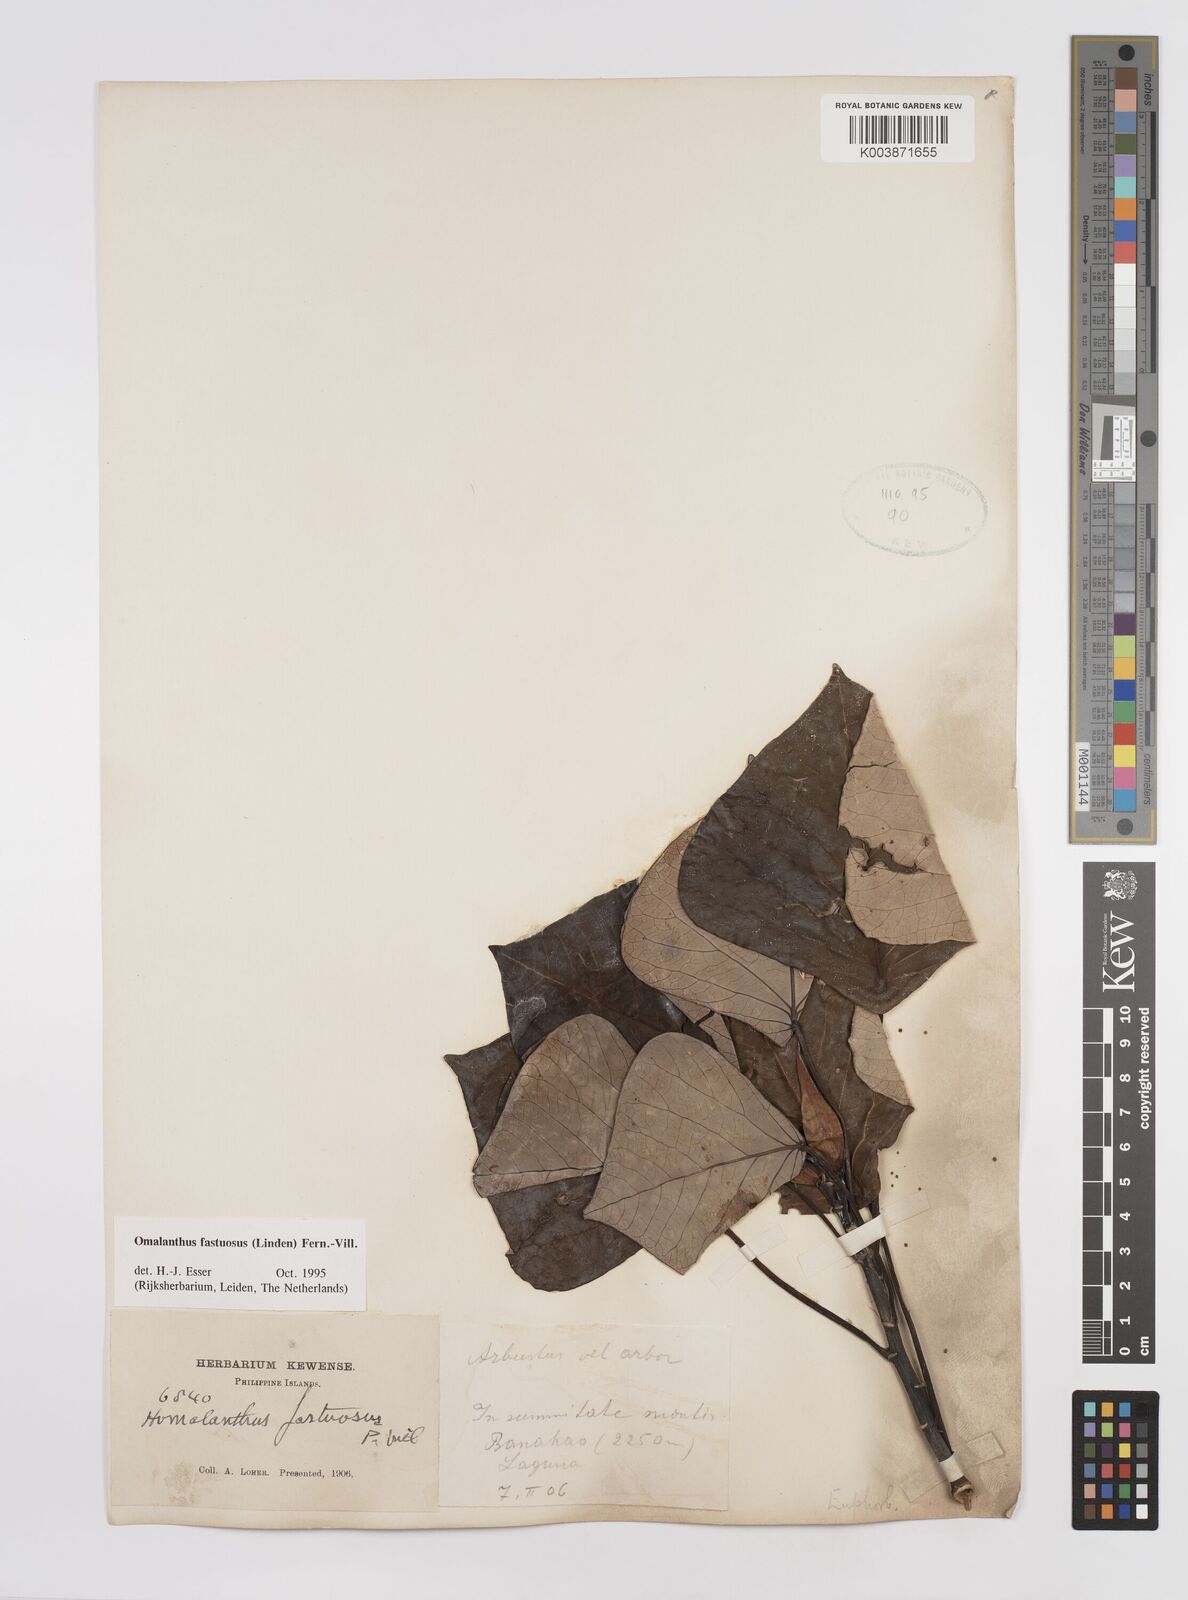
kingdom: Plantae
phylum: Tracheophyta
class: Magnoliopsida
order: Malpighiales
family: Euphorbiaceae
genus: Homalanthus
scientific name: Homalanthus fastuosus
